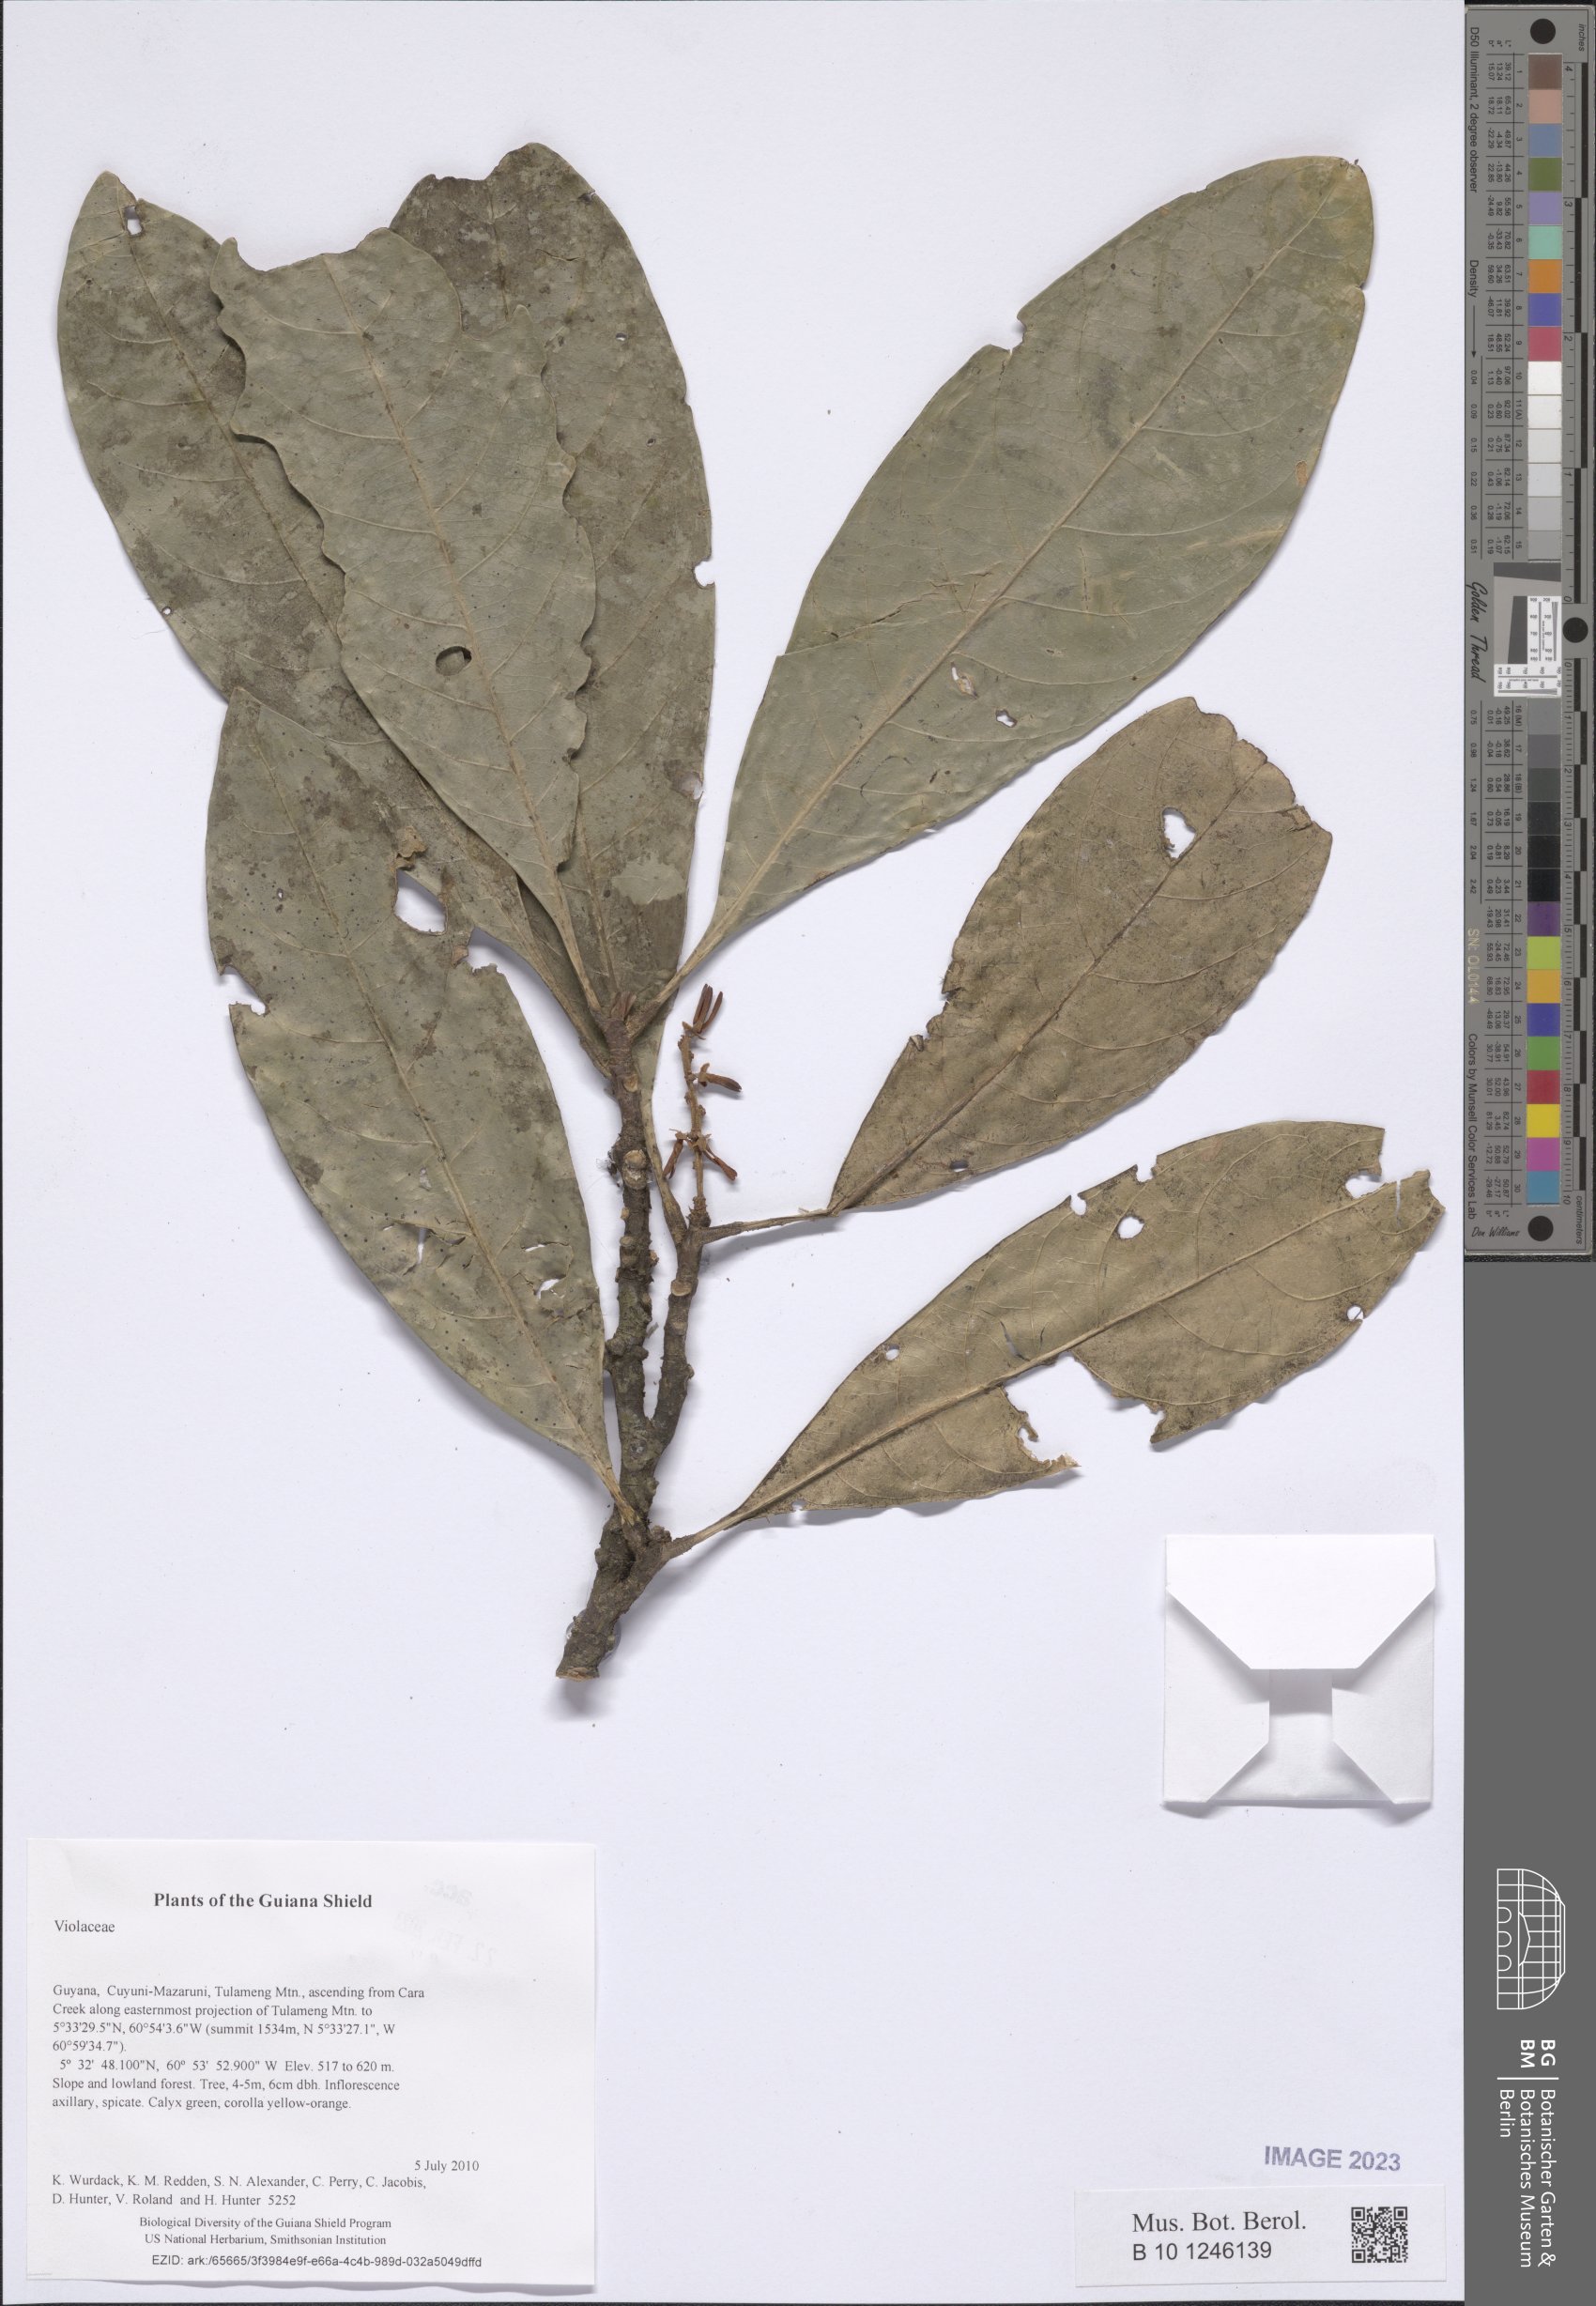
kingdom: Plantae
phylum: Tracheophyta
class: Magnoliopsida
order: Malpighiales
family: Violaceae
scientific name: Violaceae
